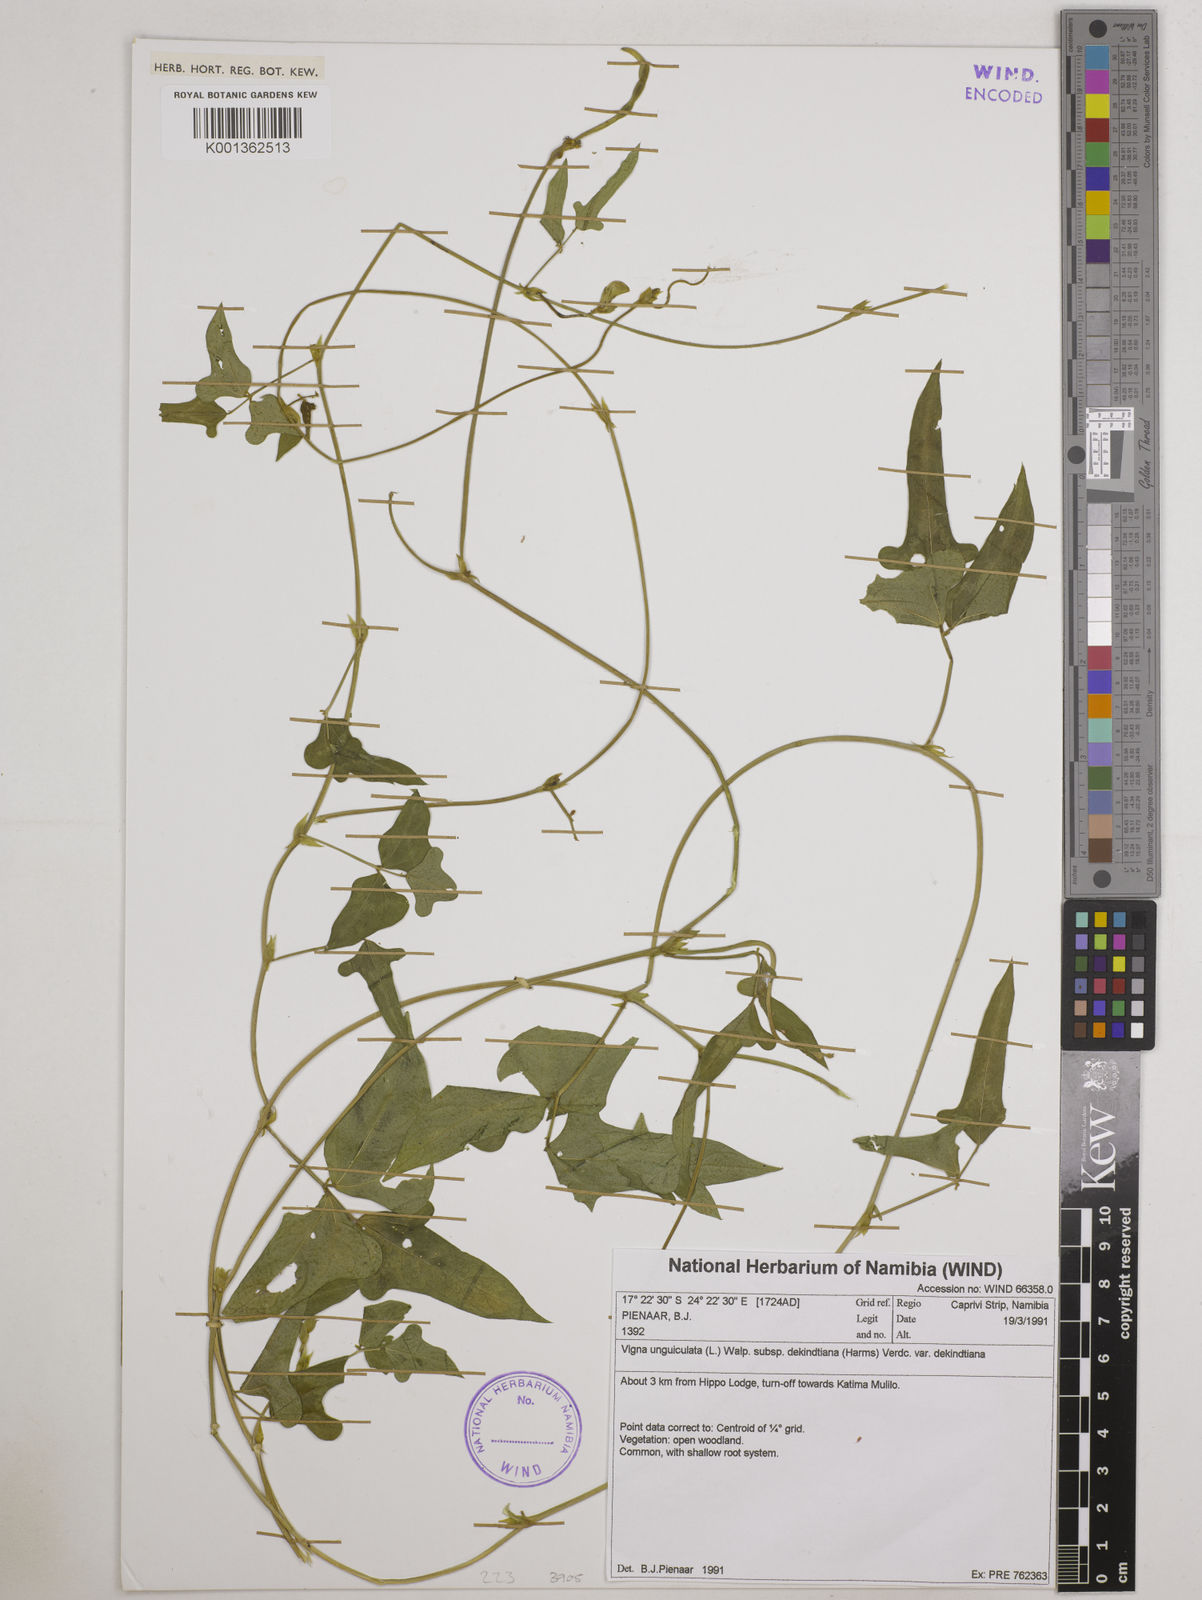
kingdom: Plantae
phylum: Tracheophyta
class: Magnoliopsida
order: Fabales
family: Fabaceae
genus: Vigna
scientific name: Vigna
